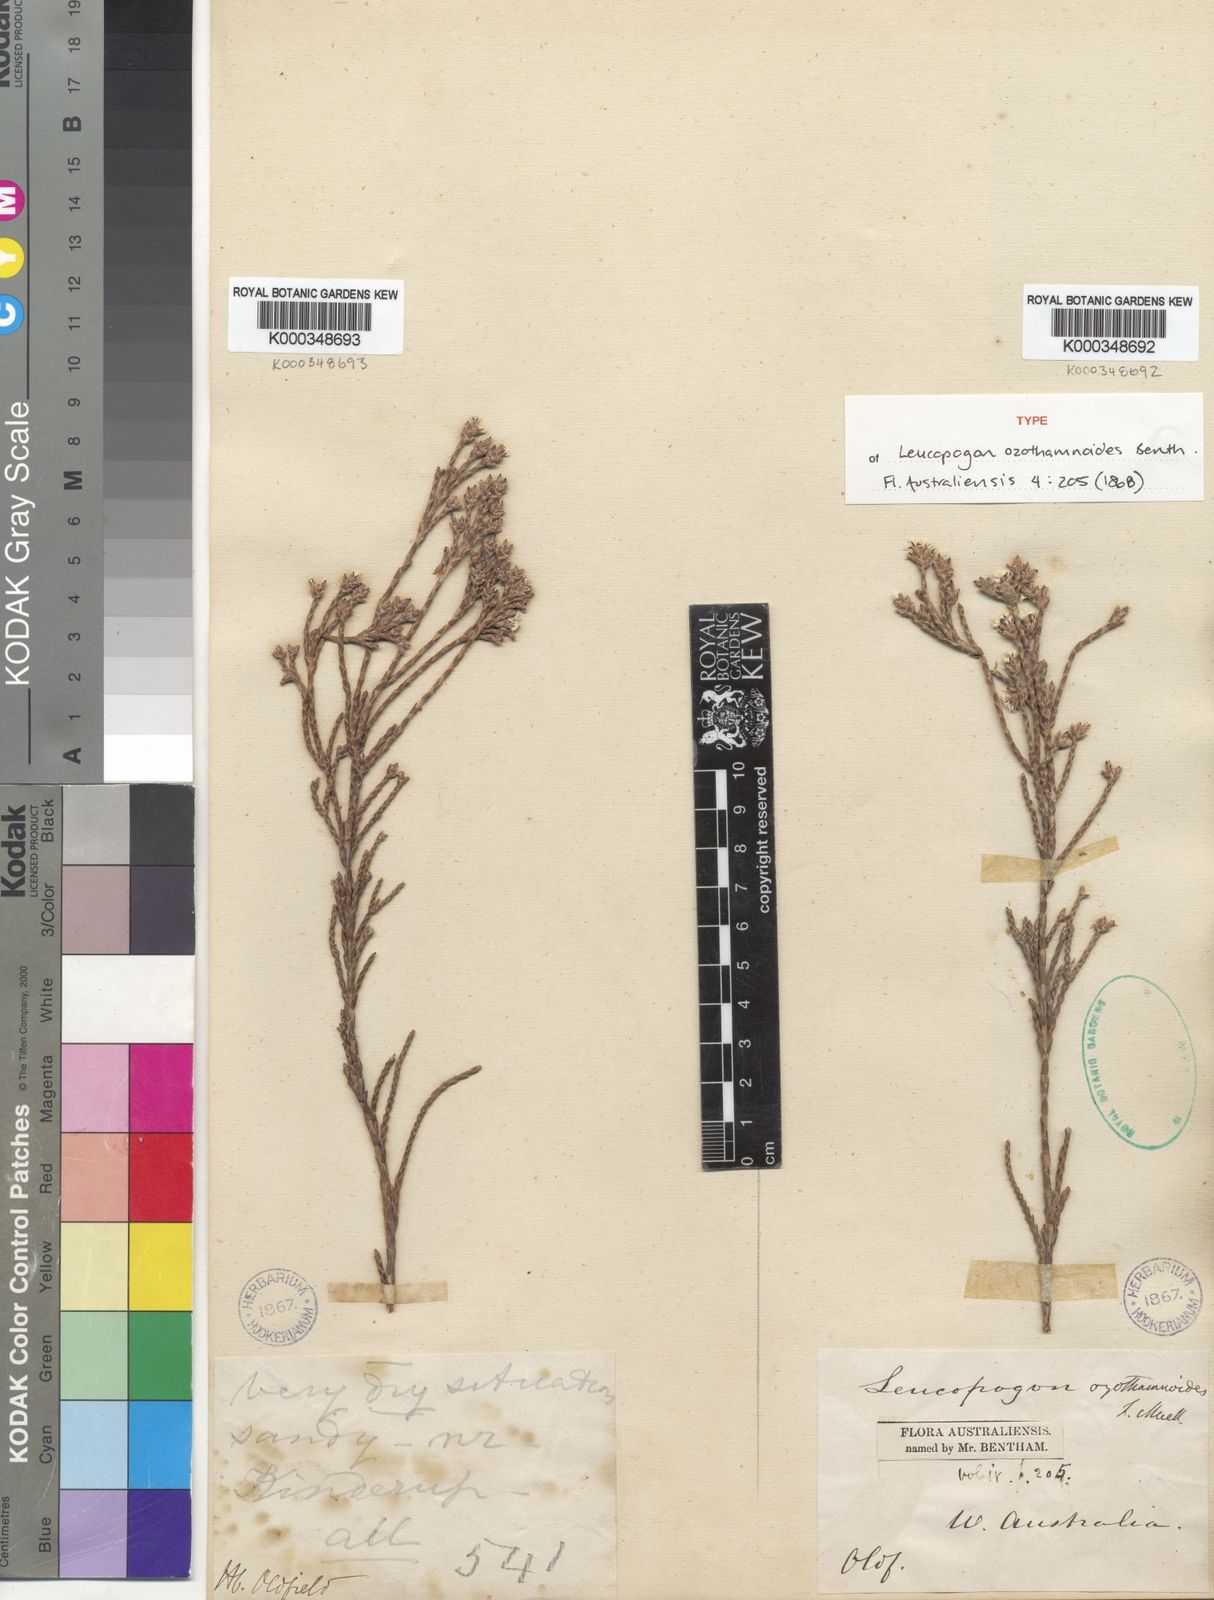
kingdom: Plantae
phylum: Tracheophyta
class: Magnoliopsida
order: Ericales
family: Ericaceae
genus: Leucopogon
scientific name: Leucopogon ozothamnoides
